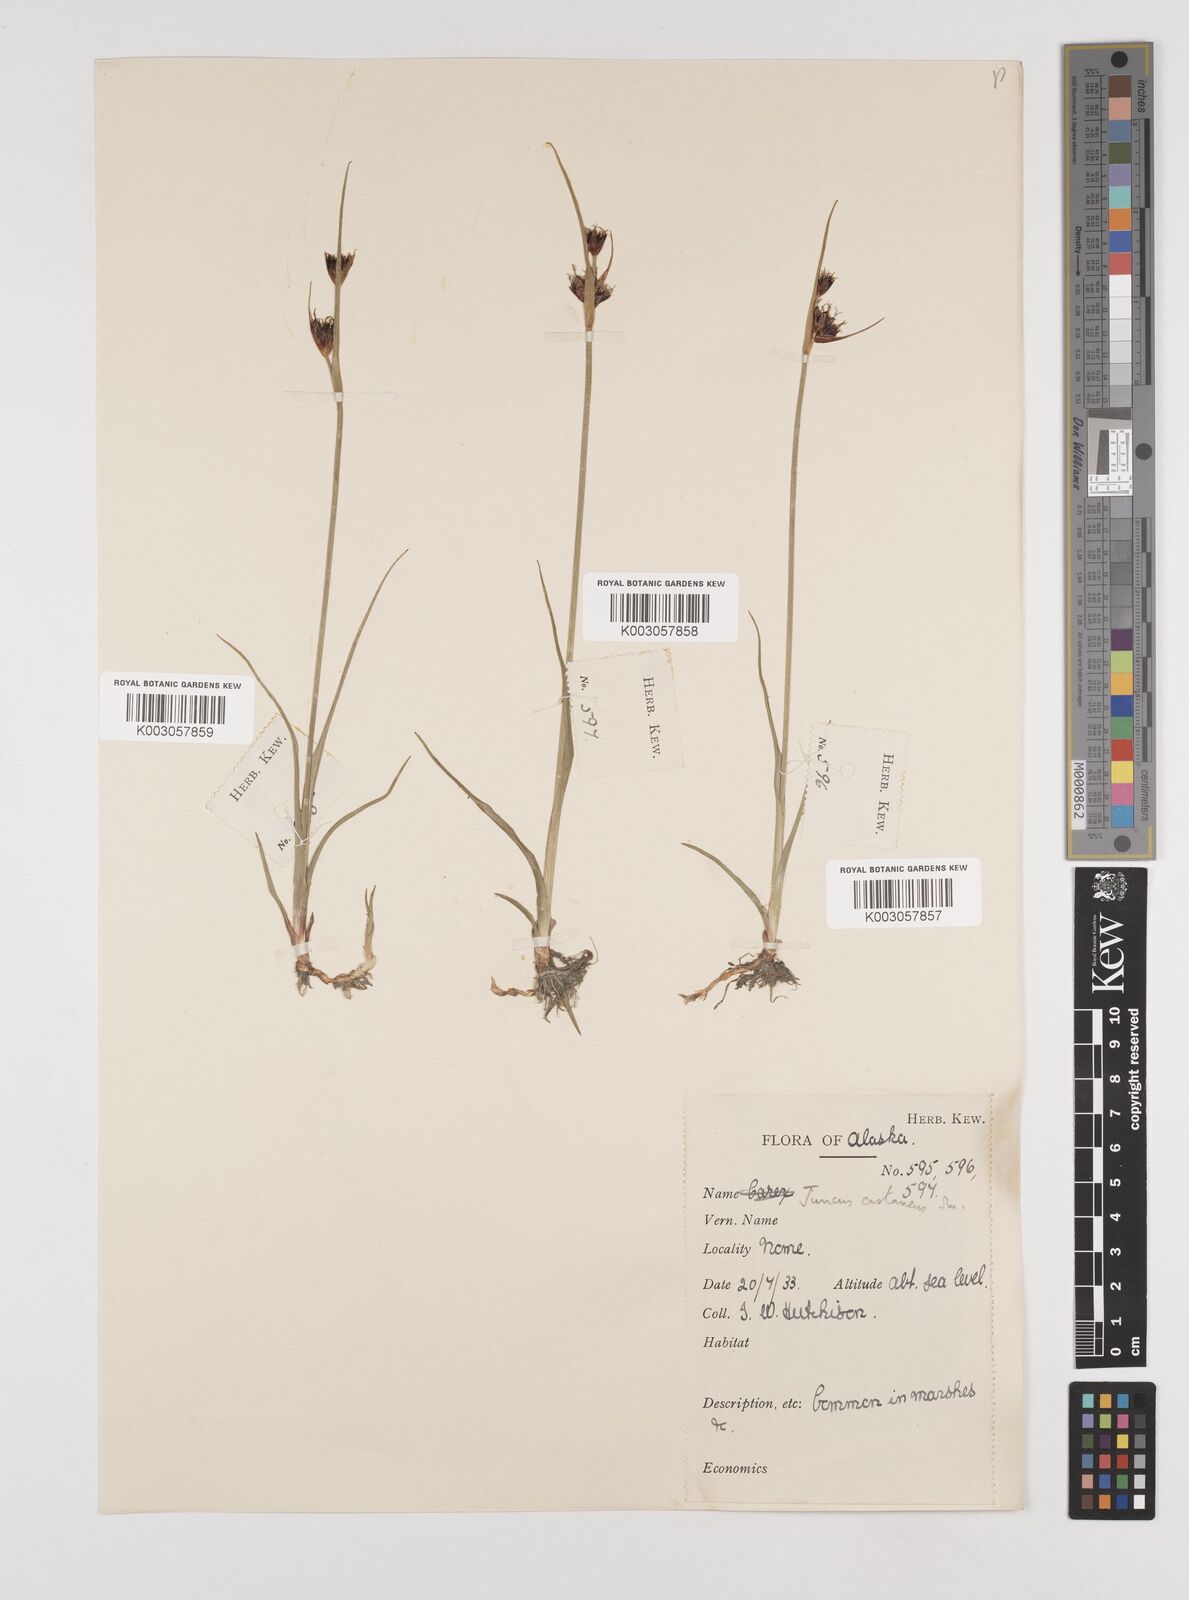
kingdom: Plantae
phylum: Tracheophyta
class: Liliopsida
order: Poales
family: Juncaceae
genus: Juncus
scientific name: Juncus castaneus
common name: Chestnut rush
